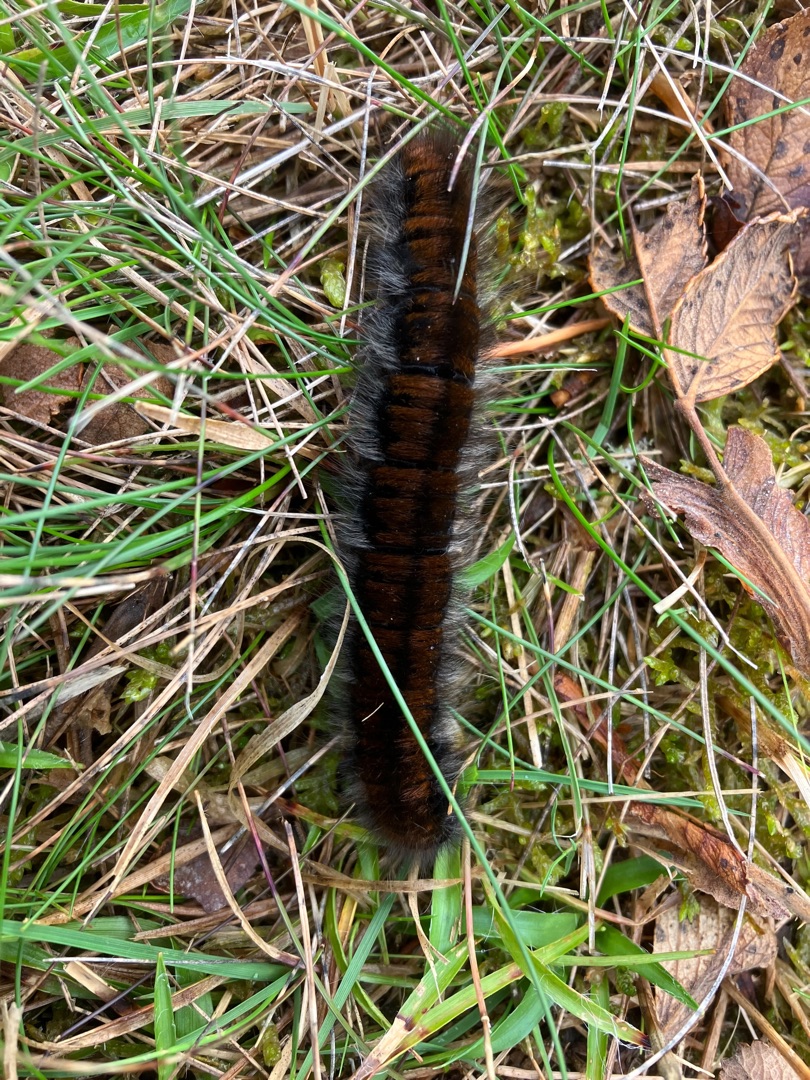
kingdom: Animalia
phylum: Arthropoda
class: Insecta
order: Lepidoptera
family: Lasiocampidae
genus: Macrothylacia
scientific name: Macrothylacia rubi
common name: Brombærspinder
